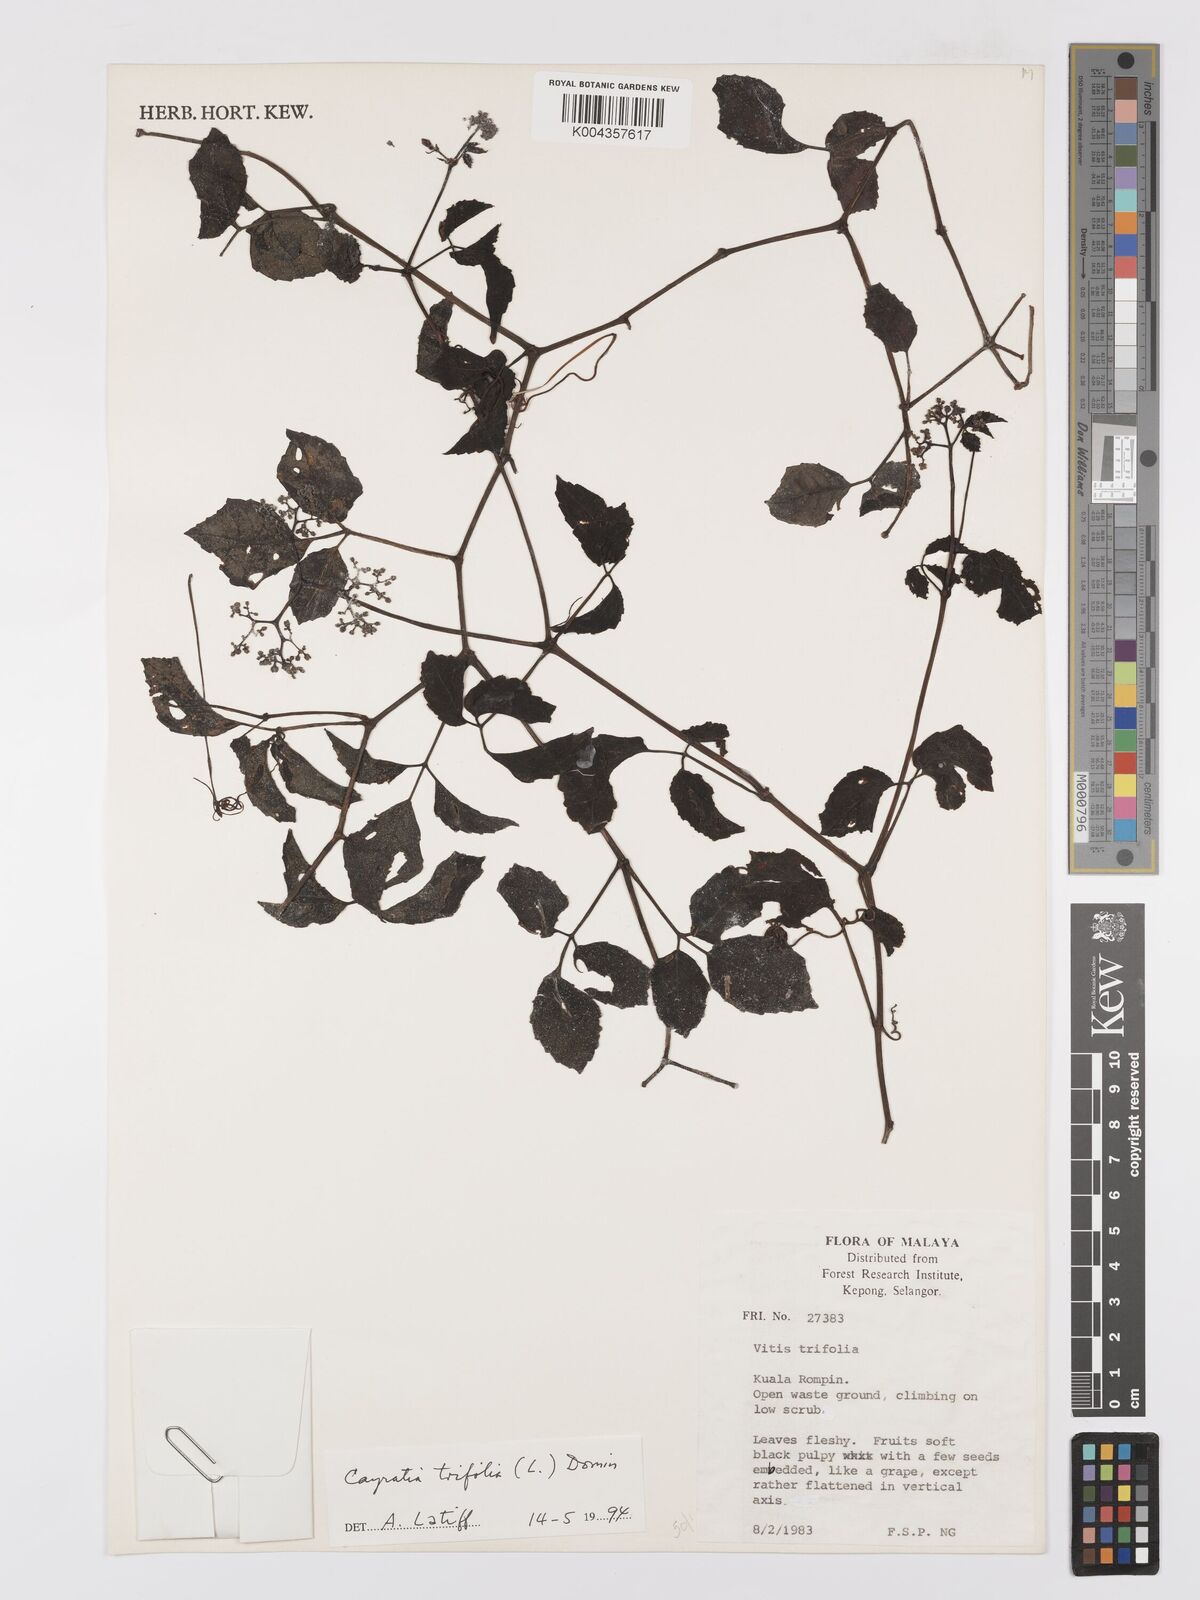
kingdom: Plantae
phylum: Tracheophyta
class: Magnoliopsida
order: Vitales
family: Vitaceae
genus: Causonis
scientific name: Causonis trifolia
